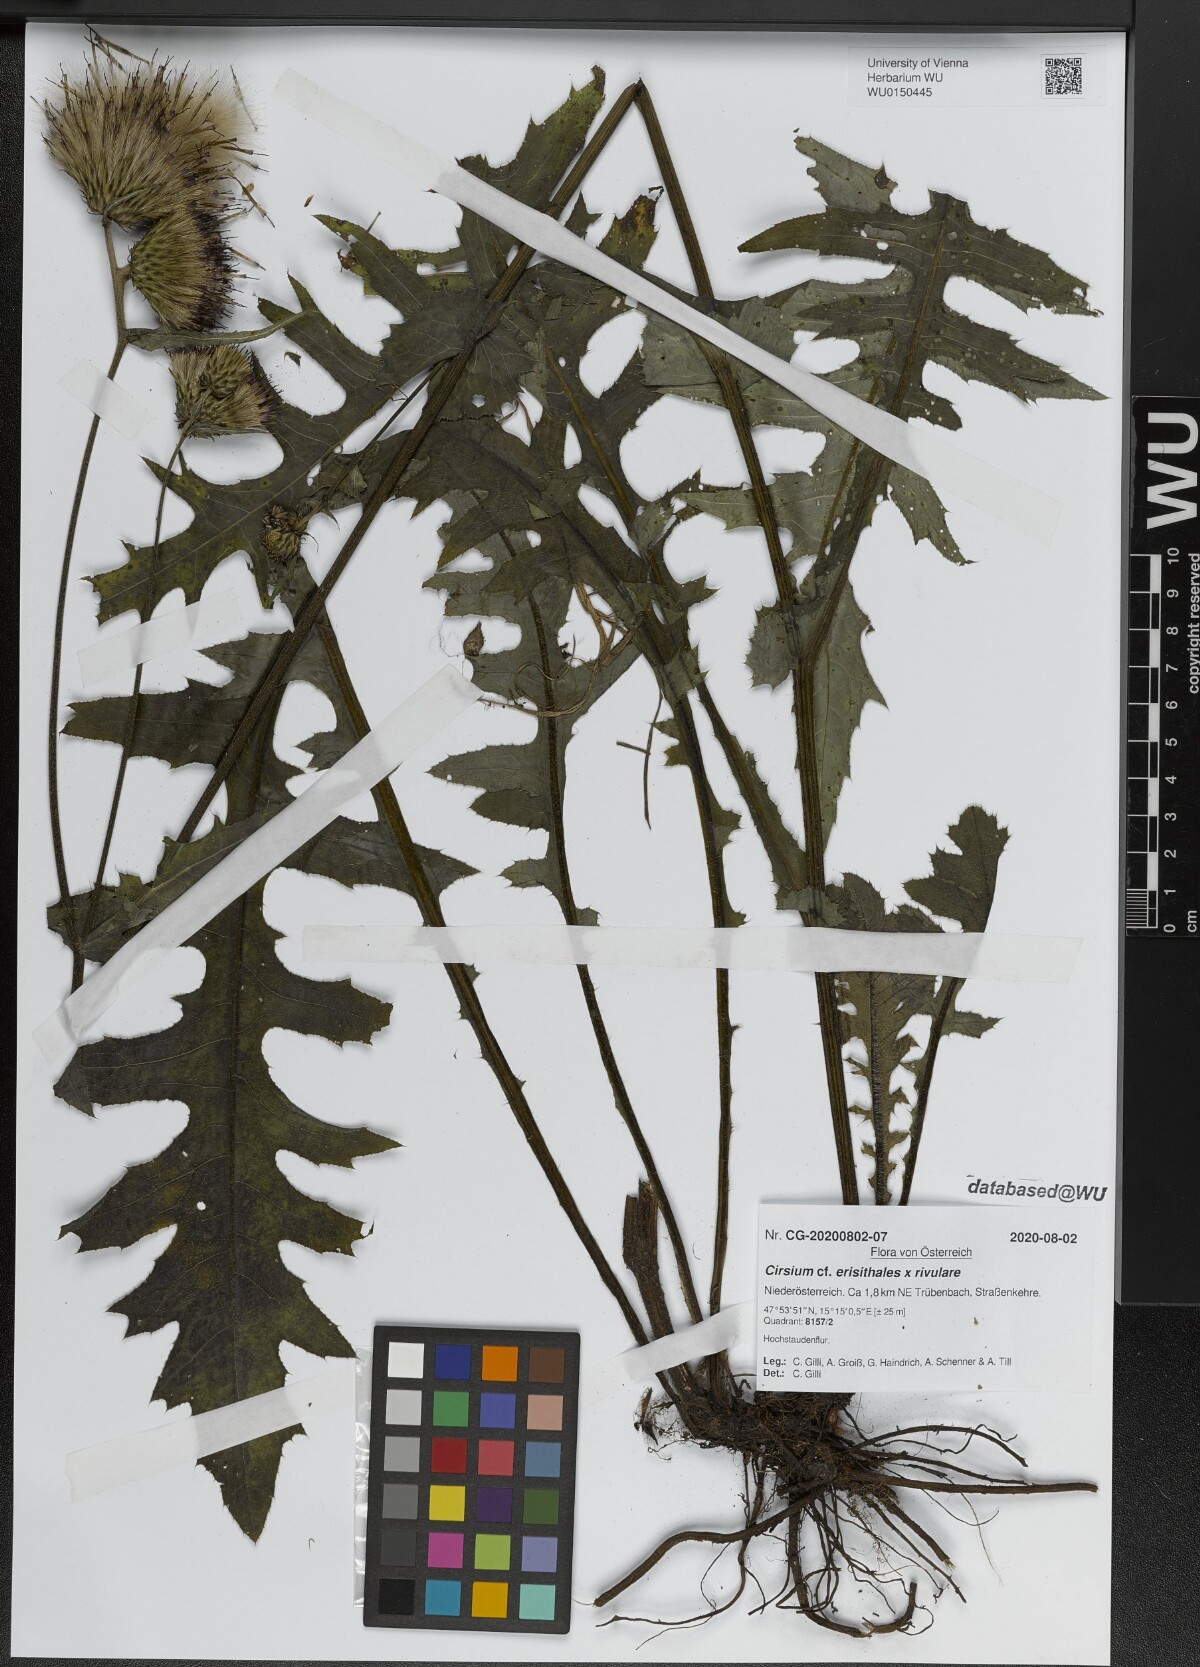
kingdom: Plantae
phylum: Tracheophyta
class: Magnoliopsida
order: Asterales
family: Asteraceae
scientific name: Asteraceae
